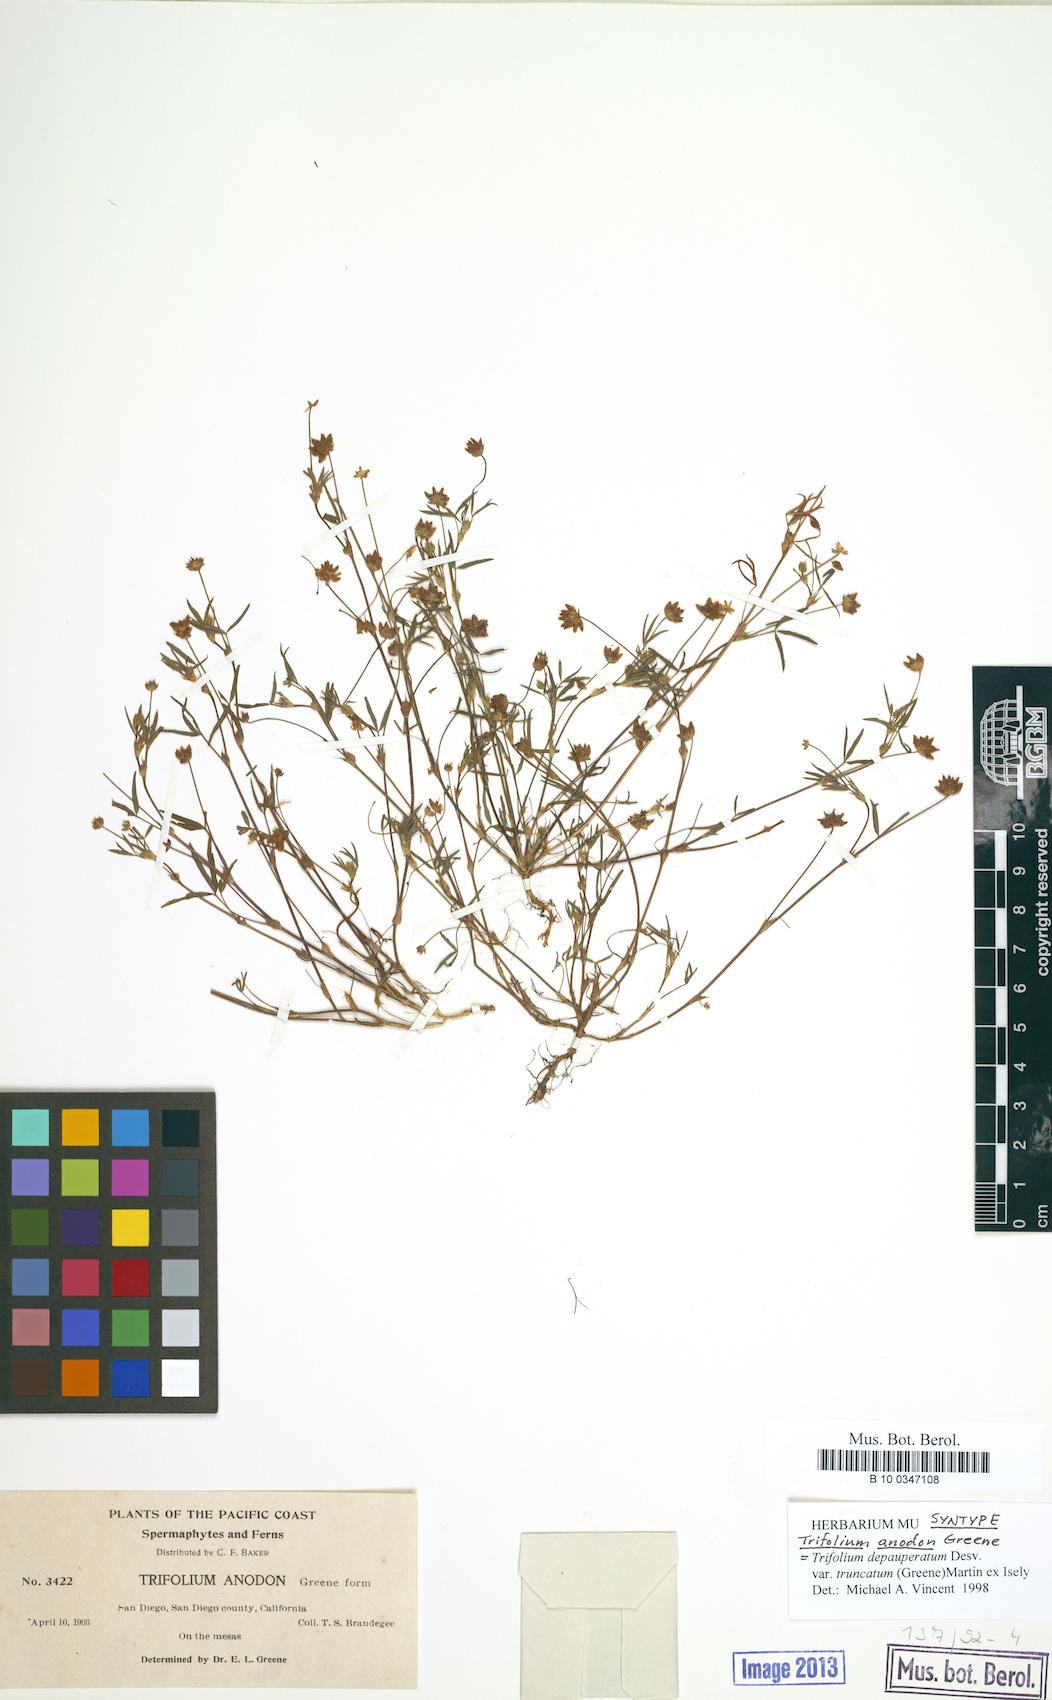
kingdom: Plantae
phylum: Tracheophyta
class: Magnoliopsida
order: Fabales
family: Fabaceae
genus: Trifolium
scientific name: Trifolium depauperatum
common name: Poverty clover
